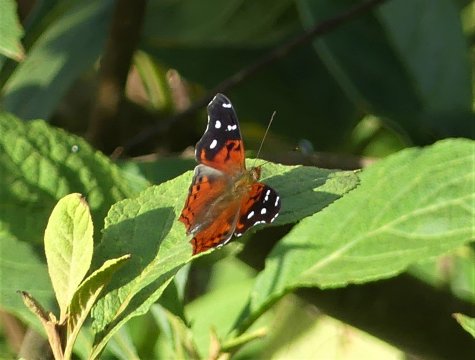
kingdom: Animalia
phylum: Arthropoda
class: Insecta
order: Lepidoptera
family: Nymphalidae
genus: Hypanartia
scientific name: Hypanartia trimaculata
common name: Reddish Mapwing
